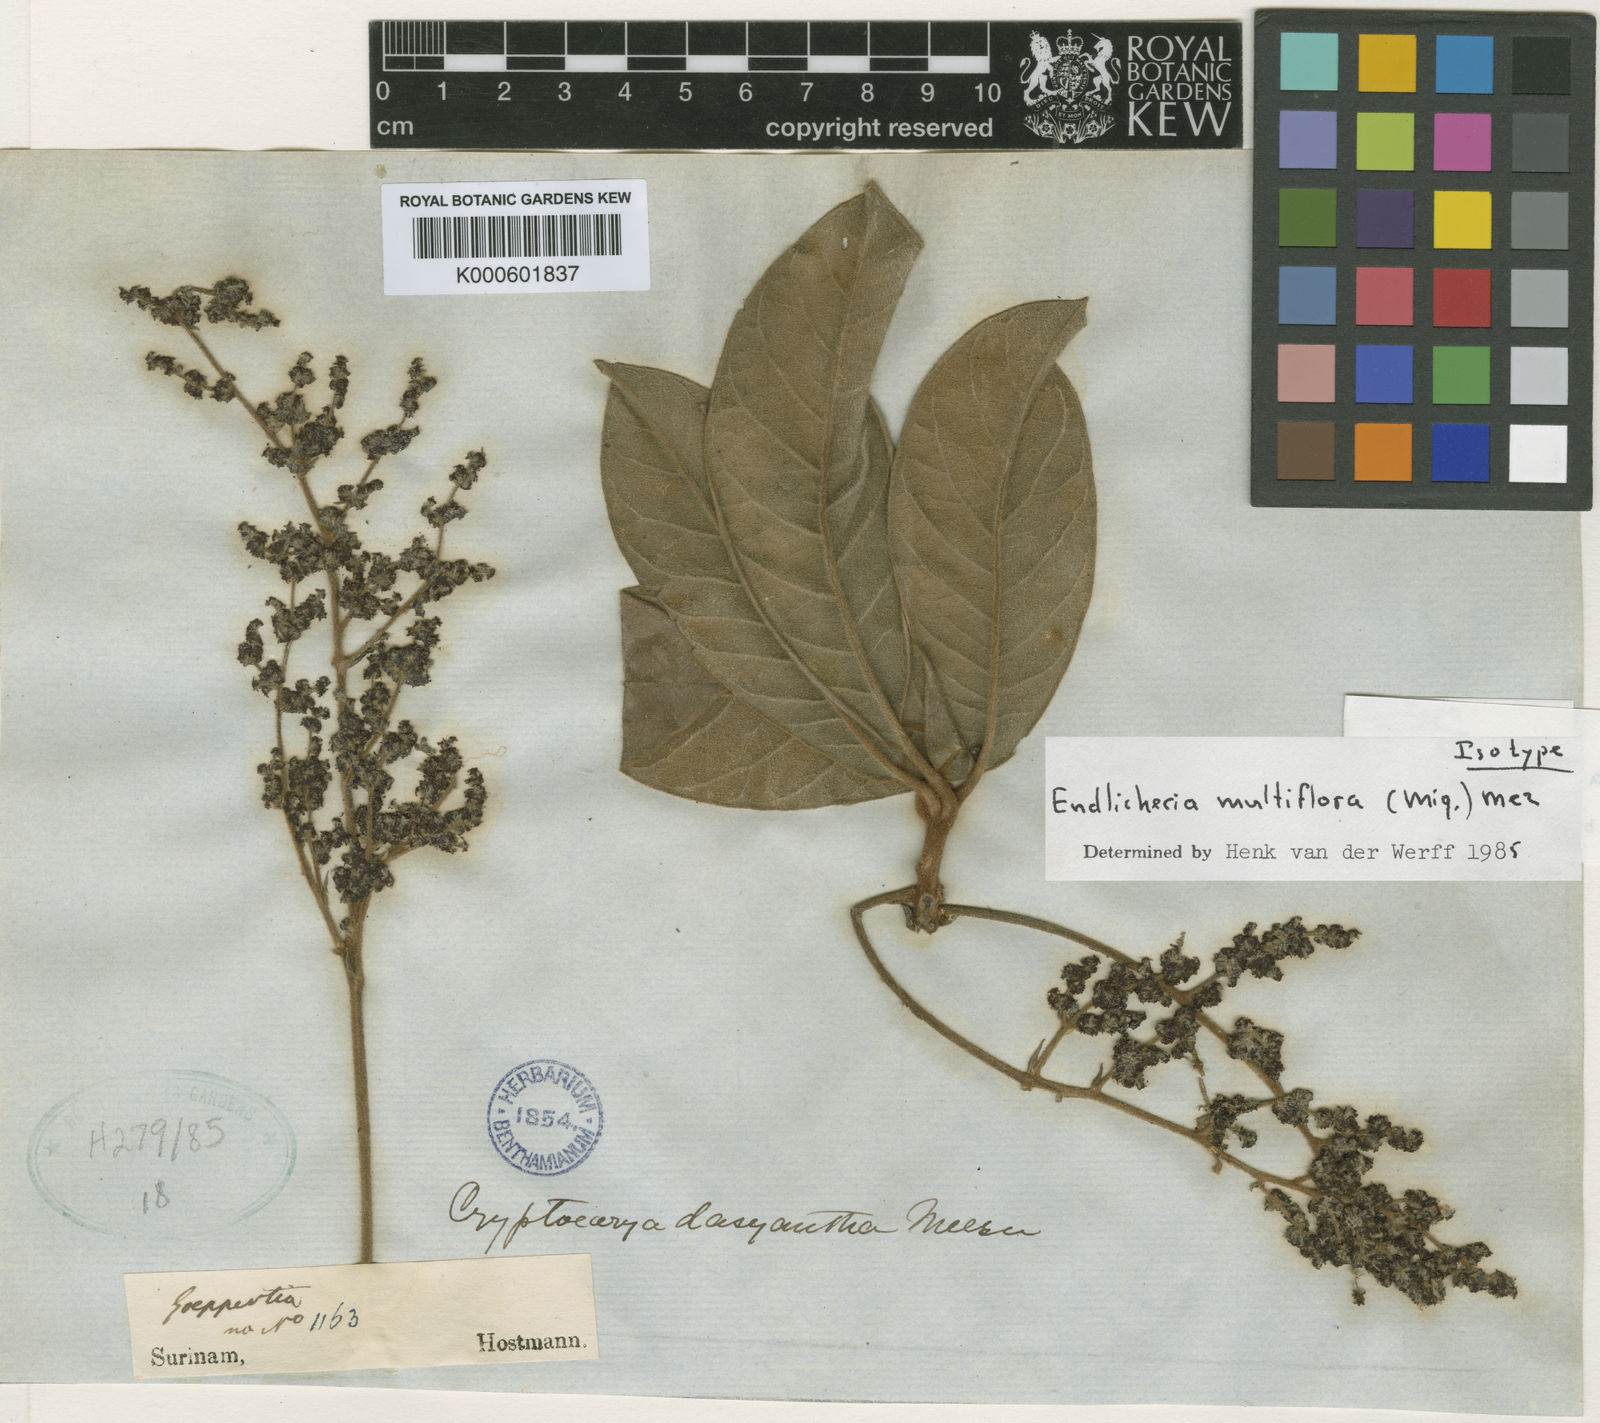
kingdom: Plantae
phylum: Tracheophyta
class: Magnoliopsida
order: Laurales
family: Lauraceae
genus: Endlicheria
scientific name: Endlicheria multiflora
